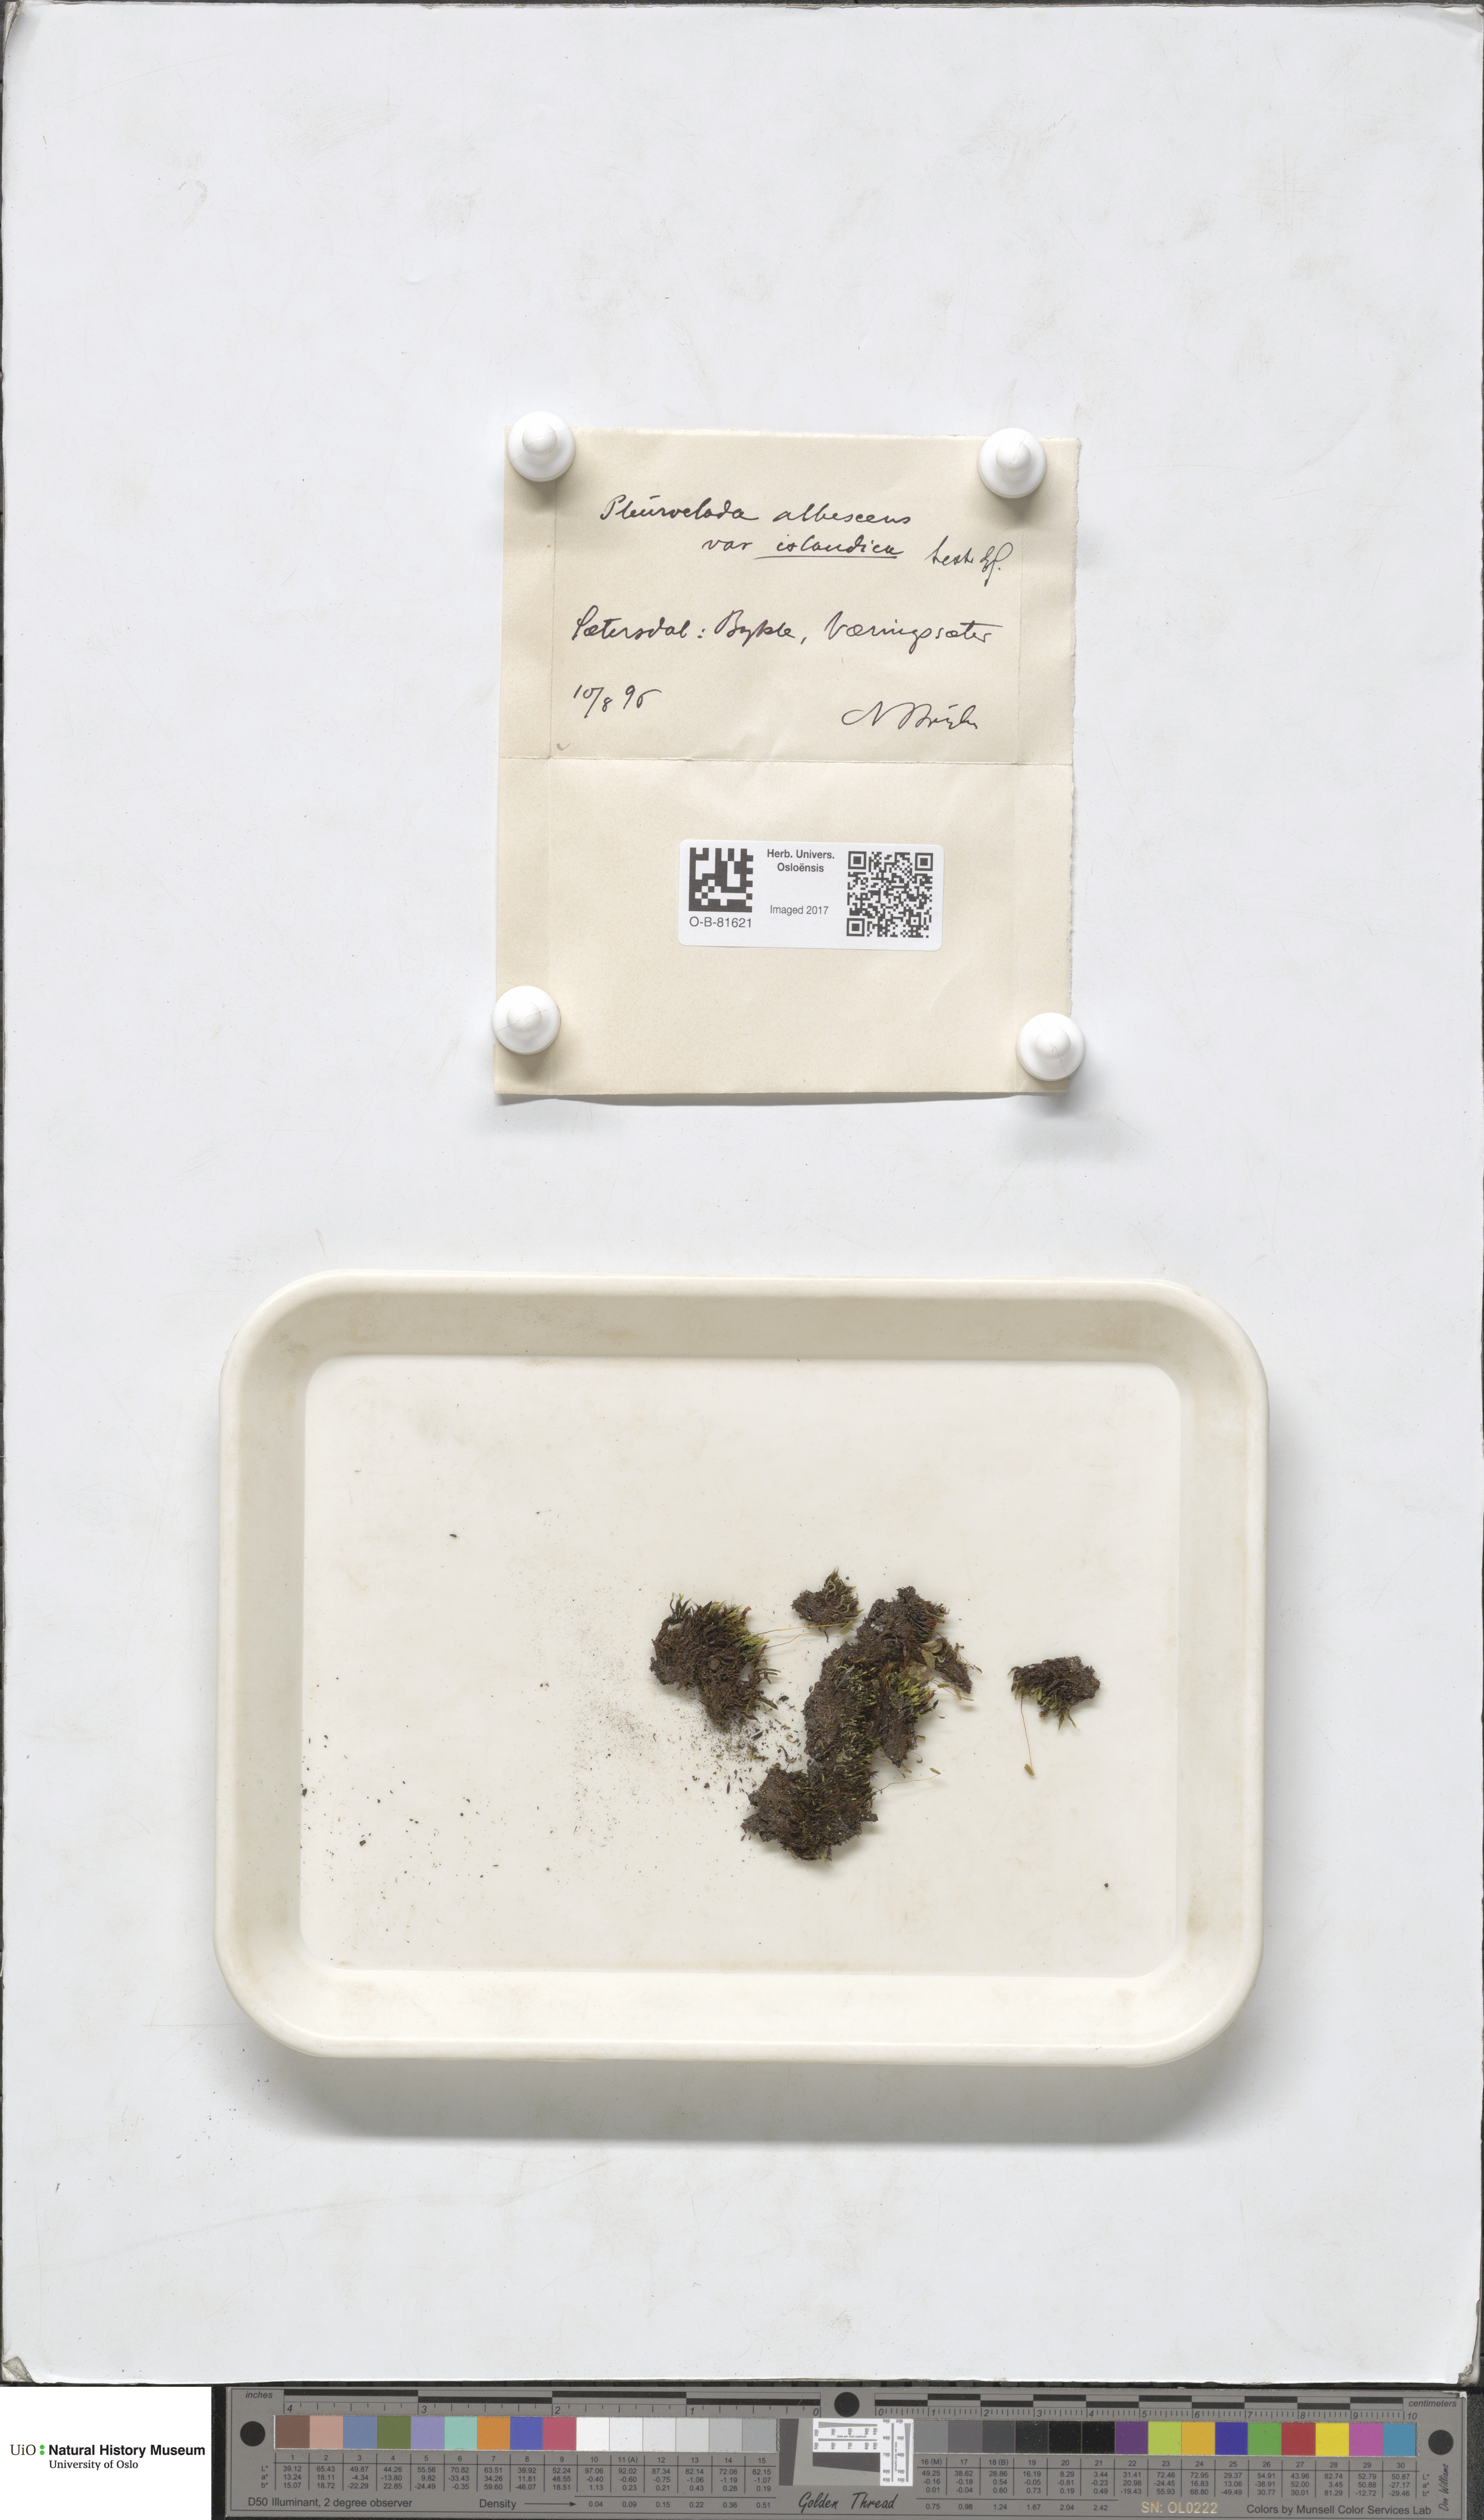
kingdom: Plantae
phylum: Marchantiophyta
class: Jungermanniopsida
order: Jungermanniales
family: Cephaloziaceae
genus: Fuscocephaloziopsis
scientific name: Fuscocephaloziopsis albescens
